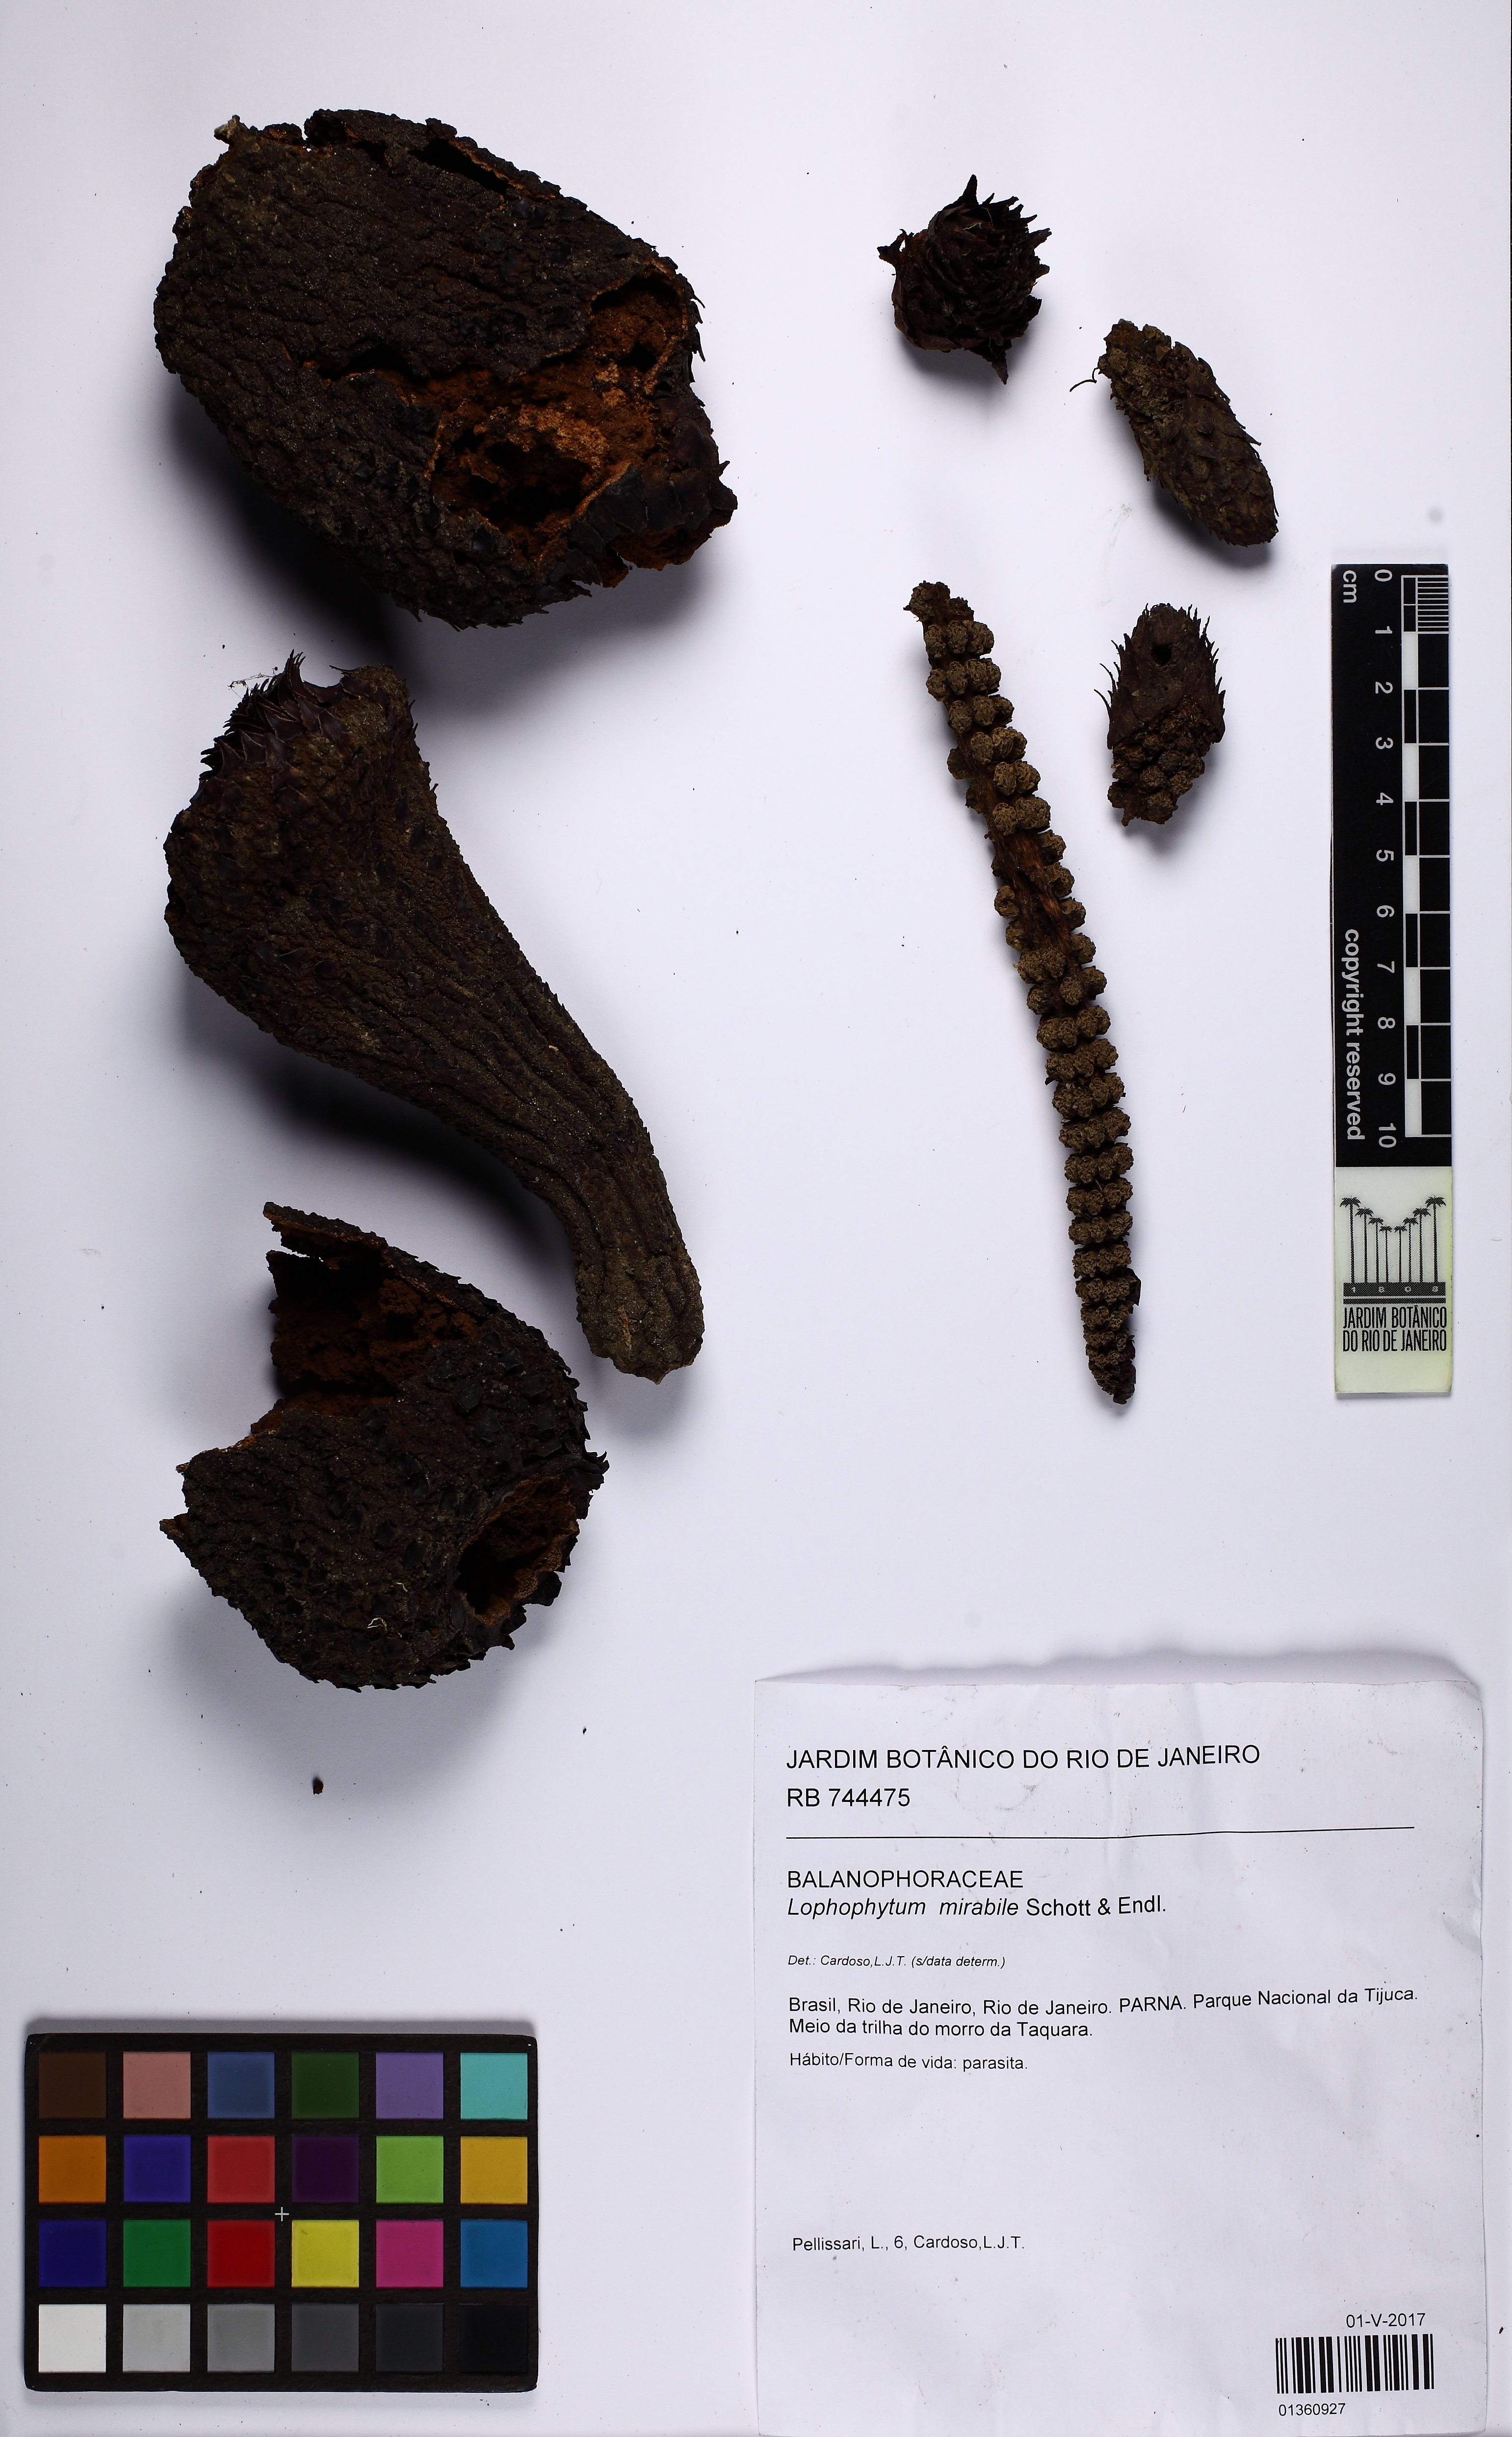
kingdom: Plantae
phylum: Tracheophyta
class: Magnoliopsida
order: Santalales
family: Balanophoraceae
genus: Lophophytum
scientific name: Lophophytum mirabile
